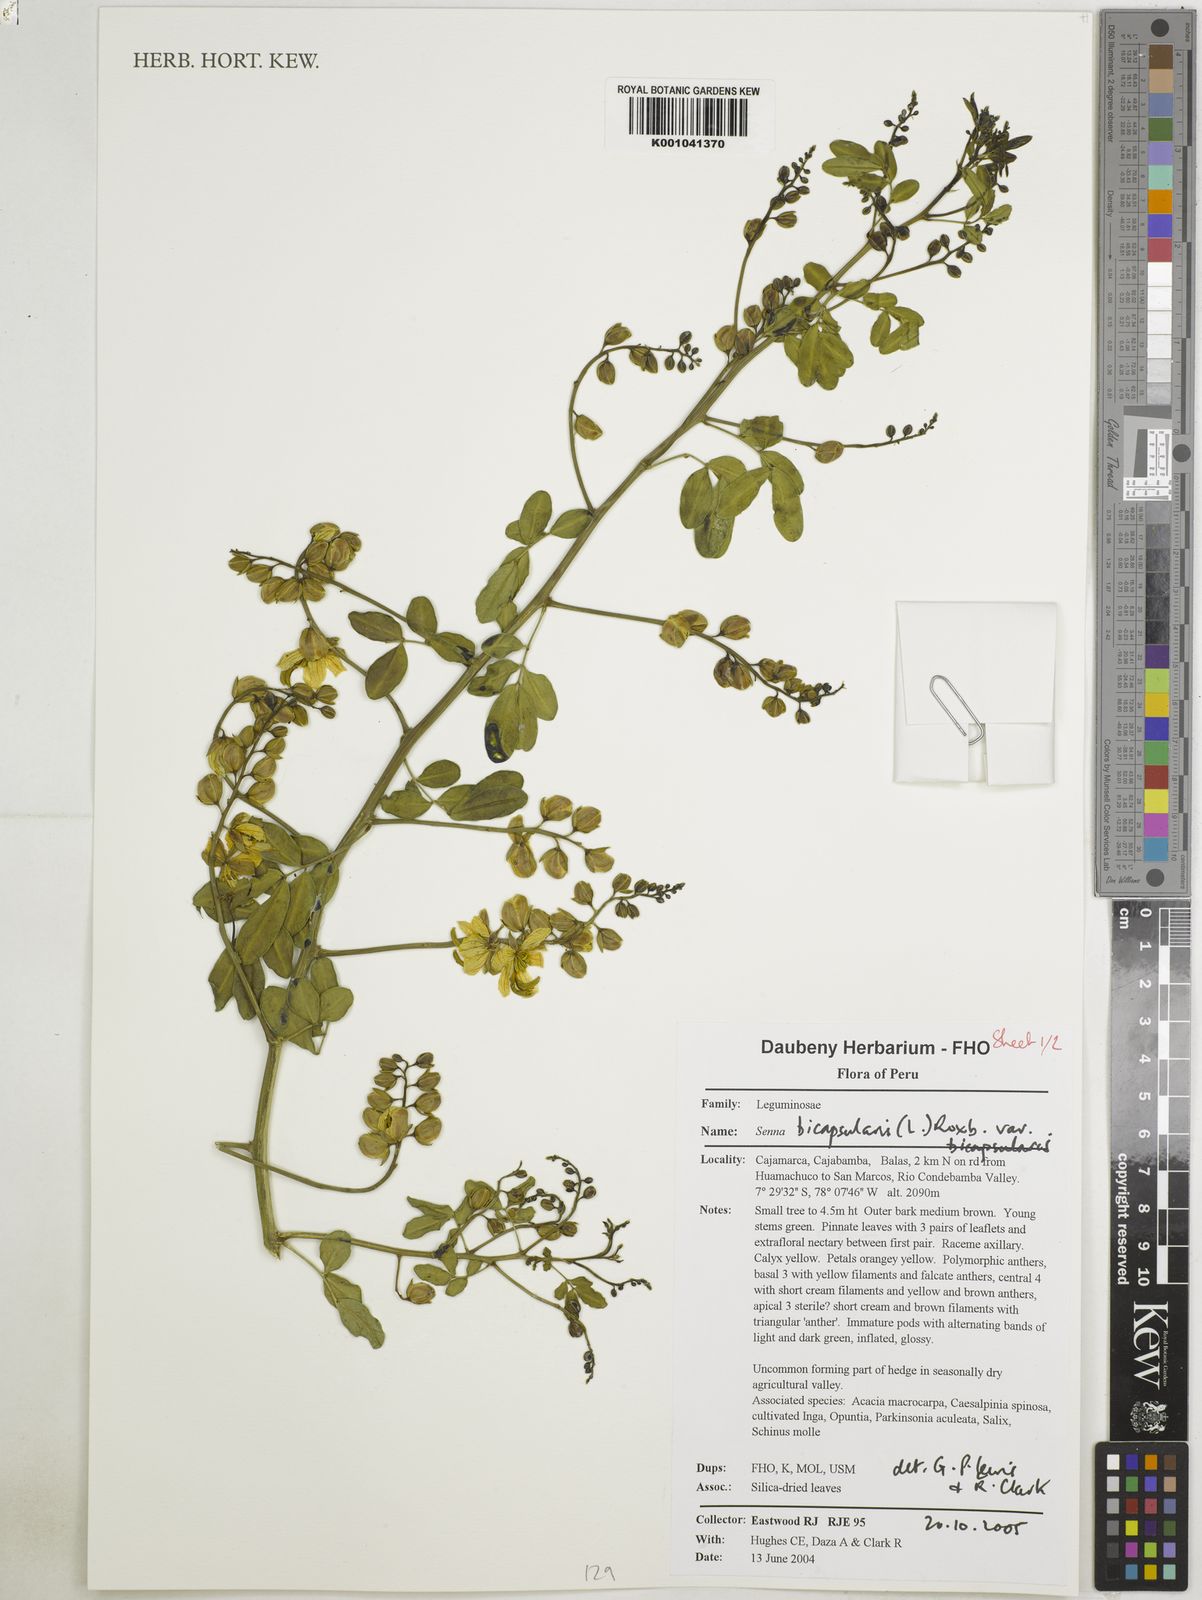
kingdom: Plantae
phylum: Tracheophyta
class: Magnoliopsida
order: Fabales
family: Fabaceae
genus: Senna
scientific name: Senna bicapsularis
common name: Christmasbush
